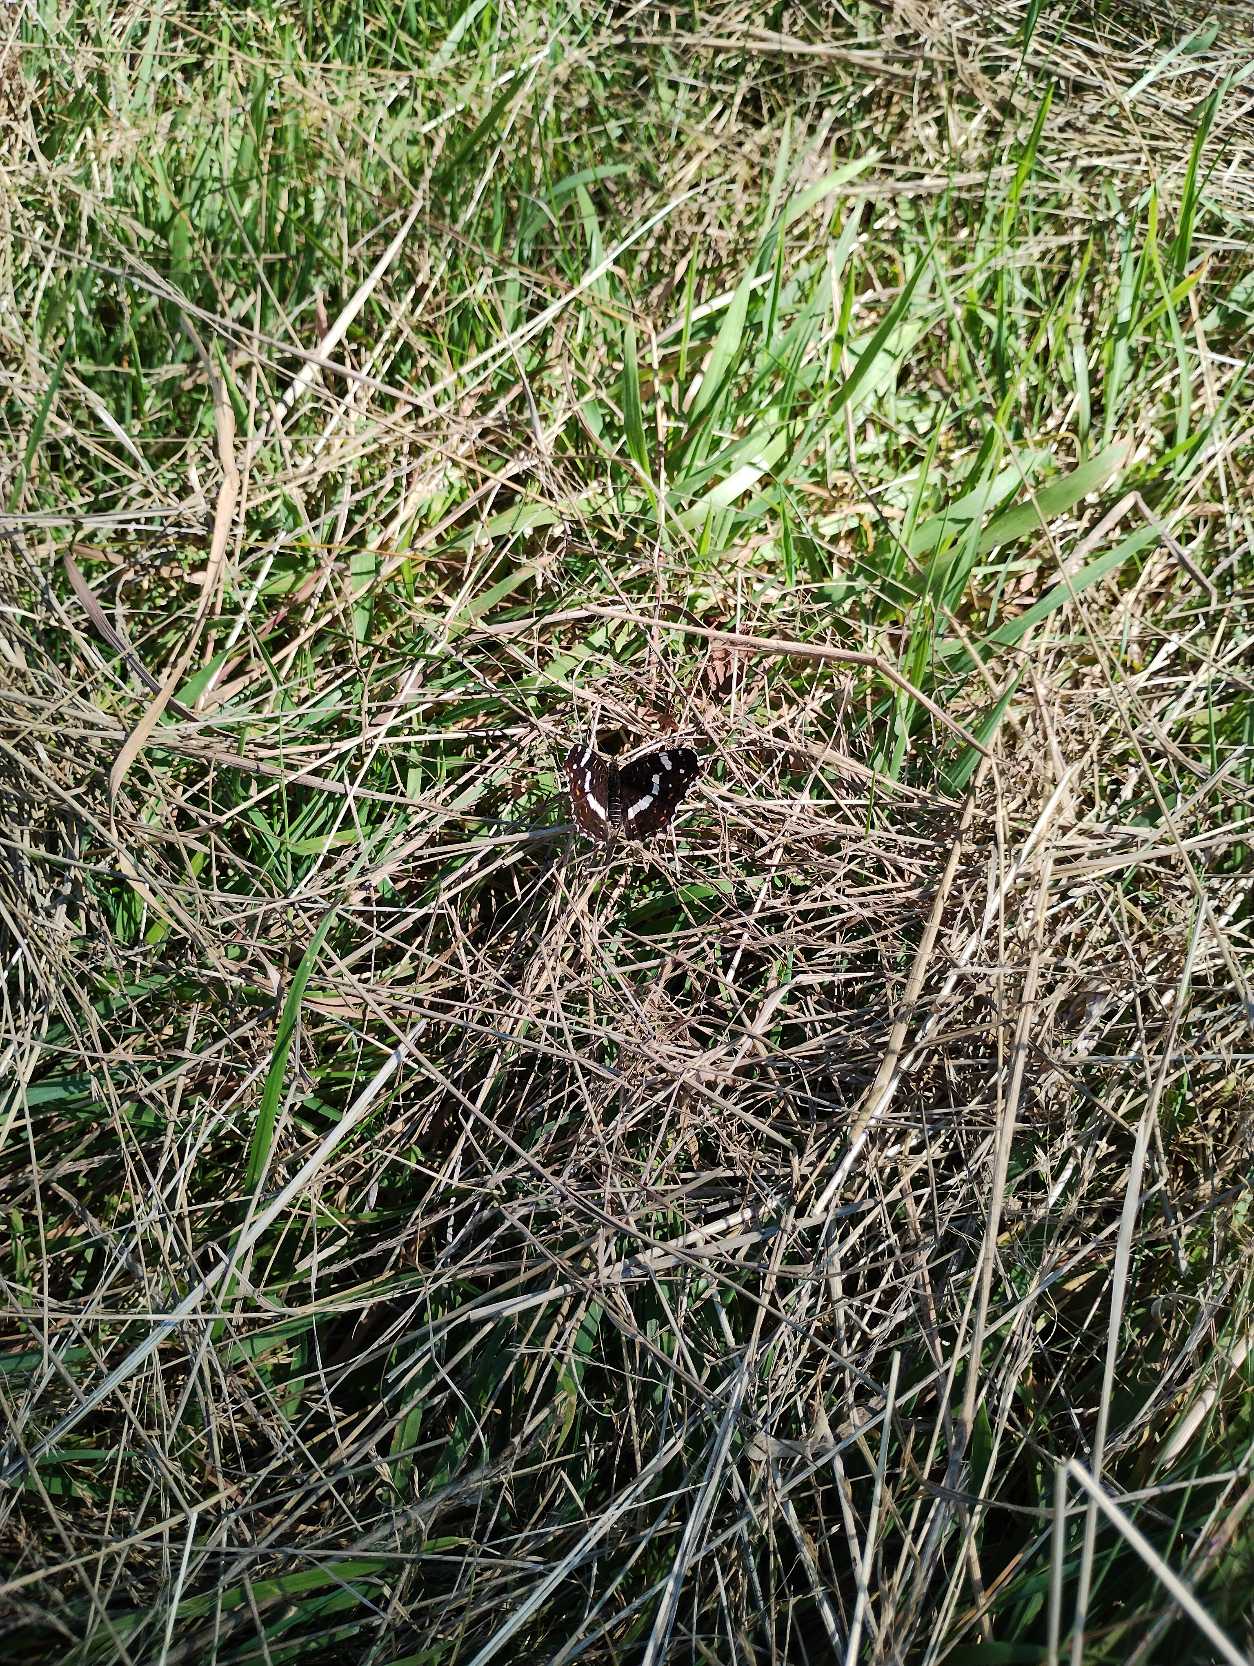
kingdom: Animalia
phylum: Arthropoda
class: Insecta
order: Lepidoptera
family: Nymphalidae
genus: Araschnia
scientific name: Araschnia levana
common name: Nældesommerfugl
